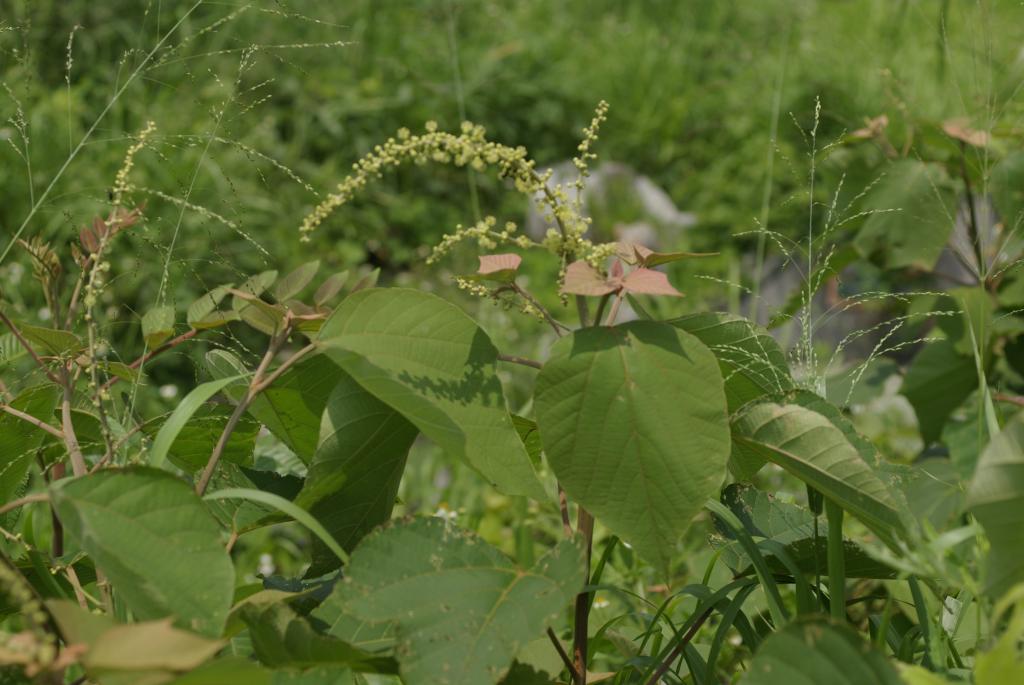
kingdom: Plantae
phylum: Tracheophyta
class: Magnoliopsida
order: Malpighiales
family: Euphorbiaceae
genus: Mallotus
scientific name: Mallotus japonicus
